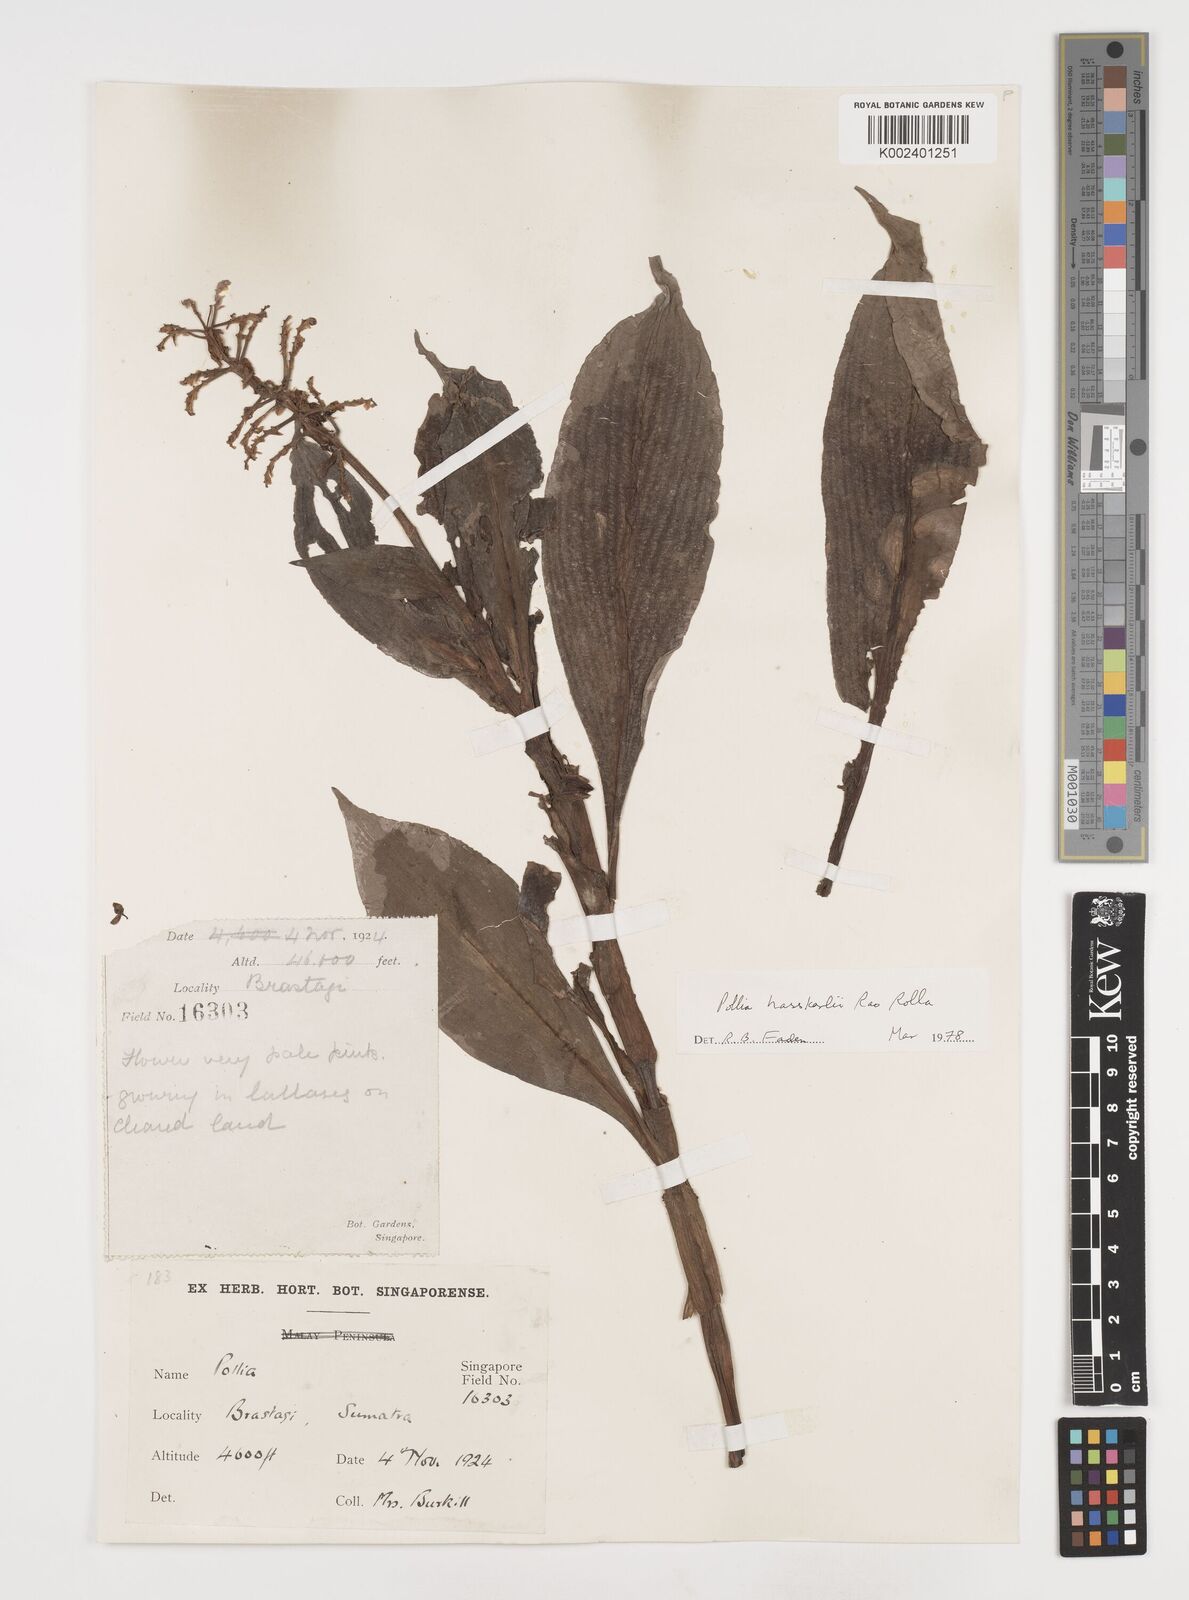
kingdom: Plantae
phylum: Tracheophyta
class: Liliopsida
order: Commelinales
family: Commelinaceae
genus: Pollia
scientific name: Pollia hasskarlii
